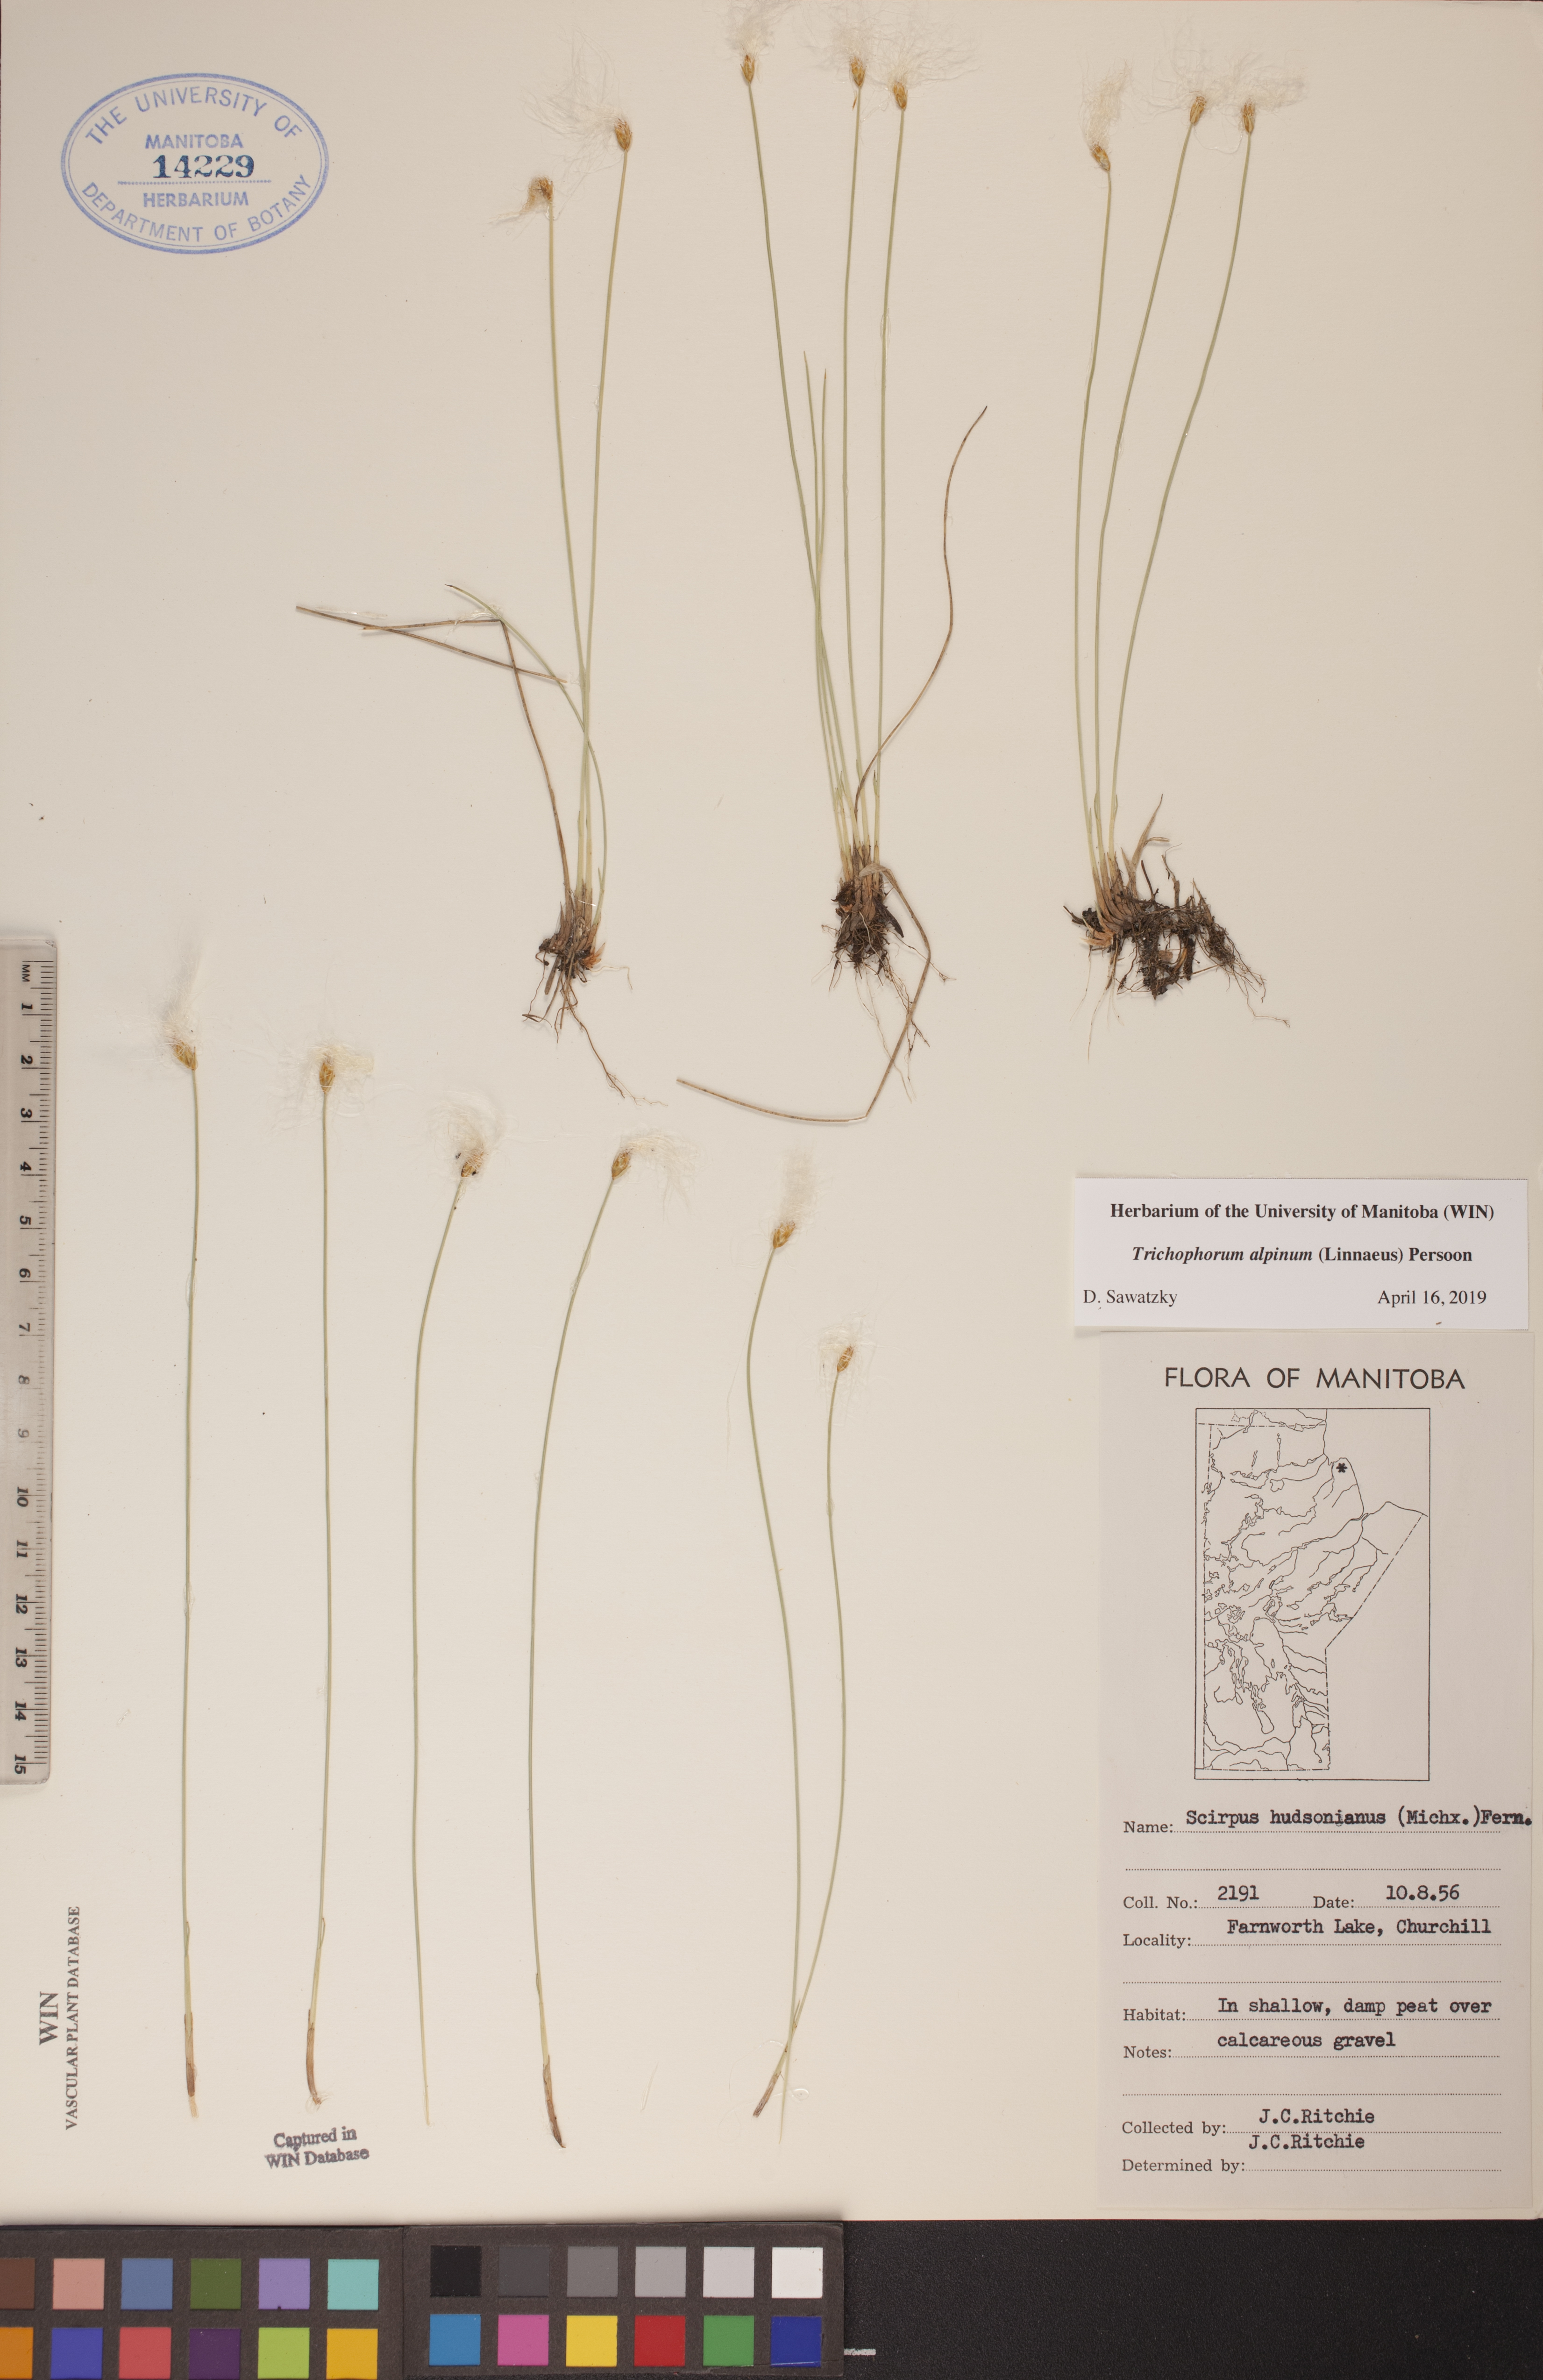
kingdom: Plantae
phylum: Tracheophyta
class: Liliopsida
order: Poales
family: Cyperaceae
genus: Trichophorum
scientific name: Trichophorum alpinum
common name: Alpine bulrush
